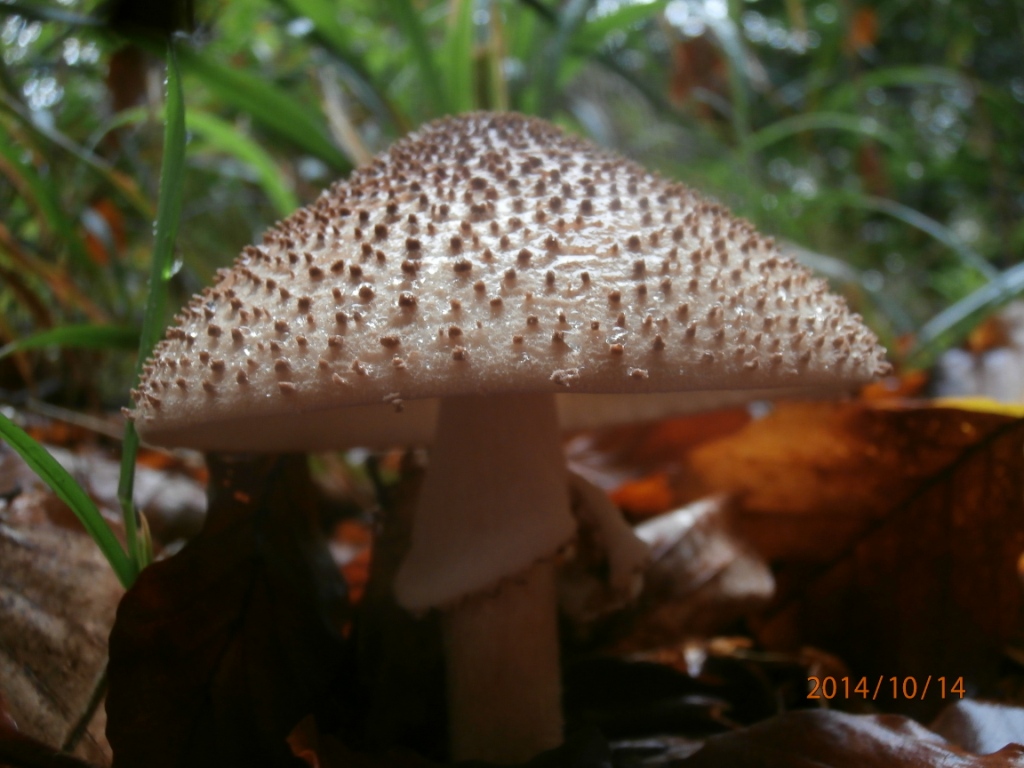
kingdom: Fungi
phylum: Basidiomycota
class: Agaricomycetes
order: Agaricales
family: Agaricaceae
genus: Echinoderma
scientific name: Echinoderma asperum
